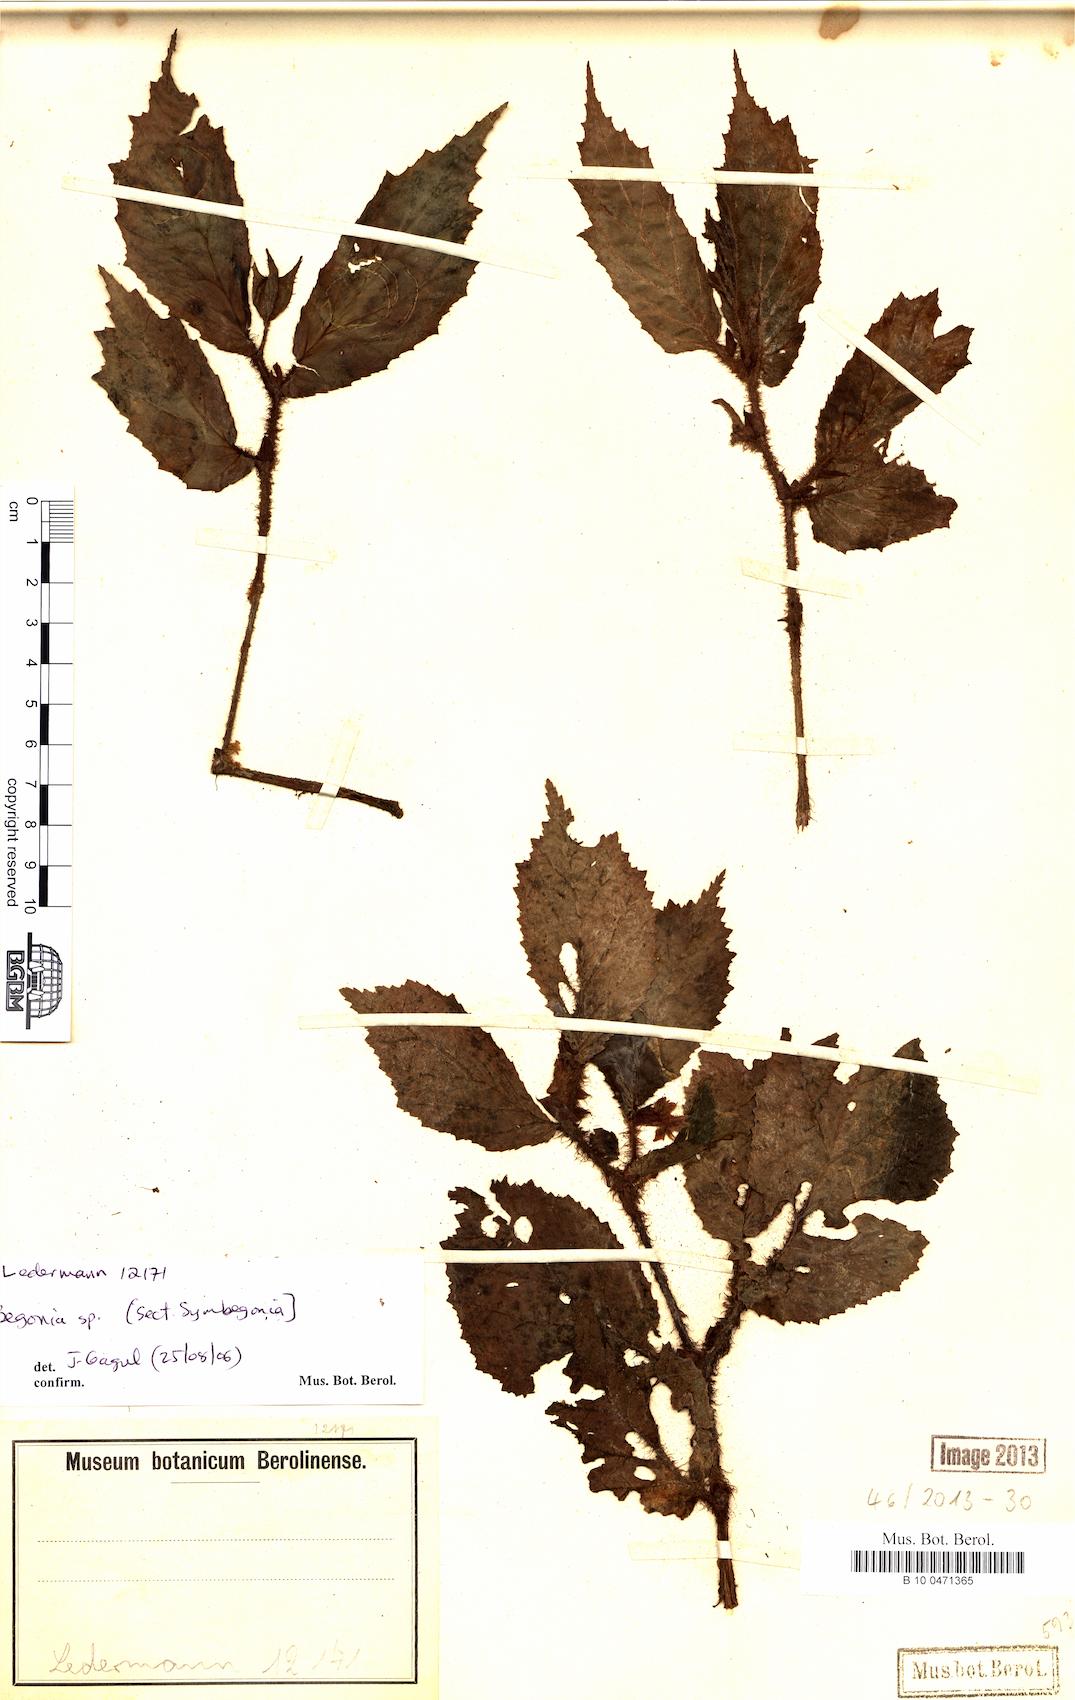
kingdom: Plantae
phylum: Tracheophyta
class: Magnoliopsida
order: Cucurbitales
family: Begoniaceae
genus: Begonia
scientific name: Begonia
